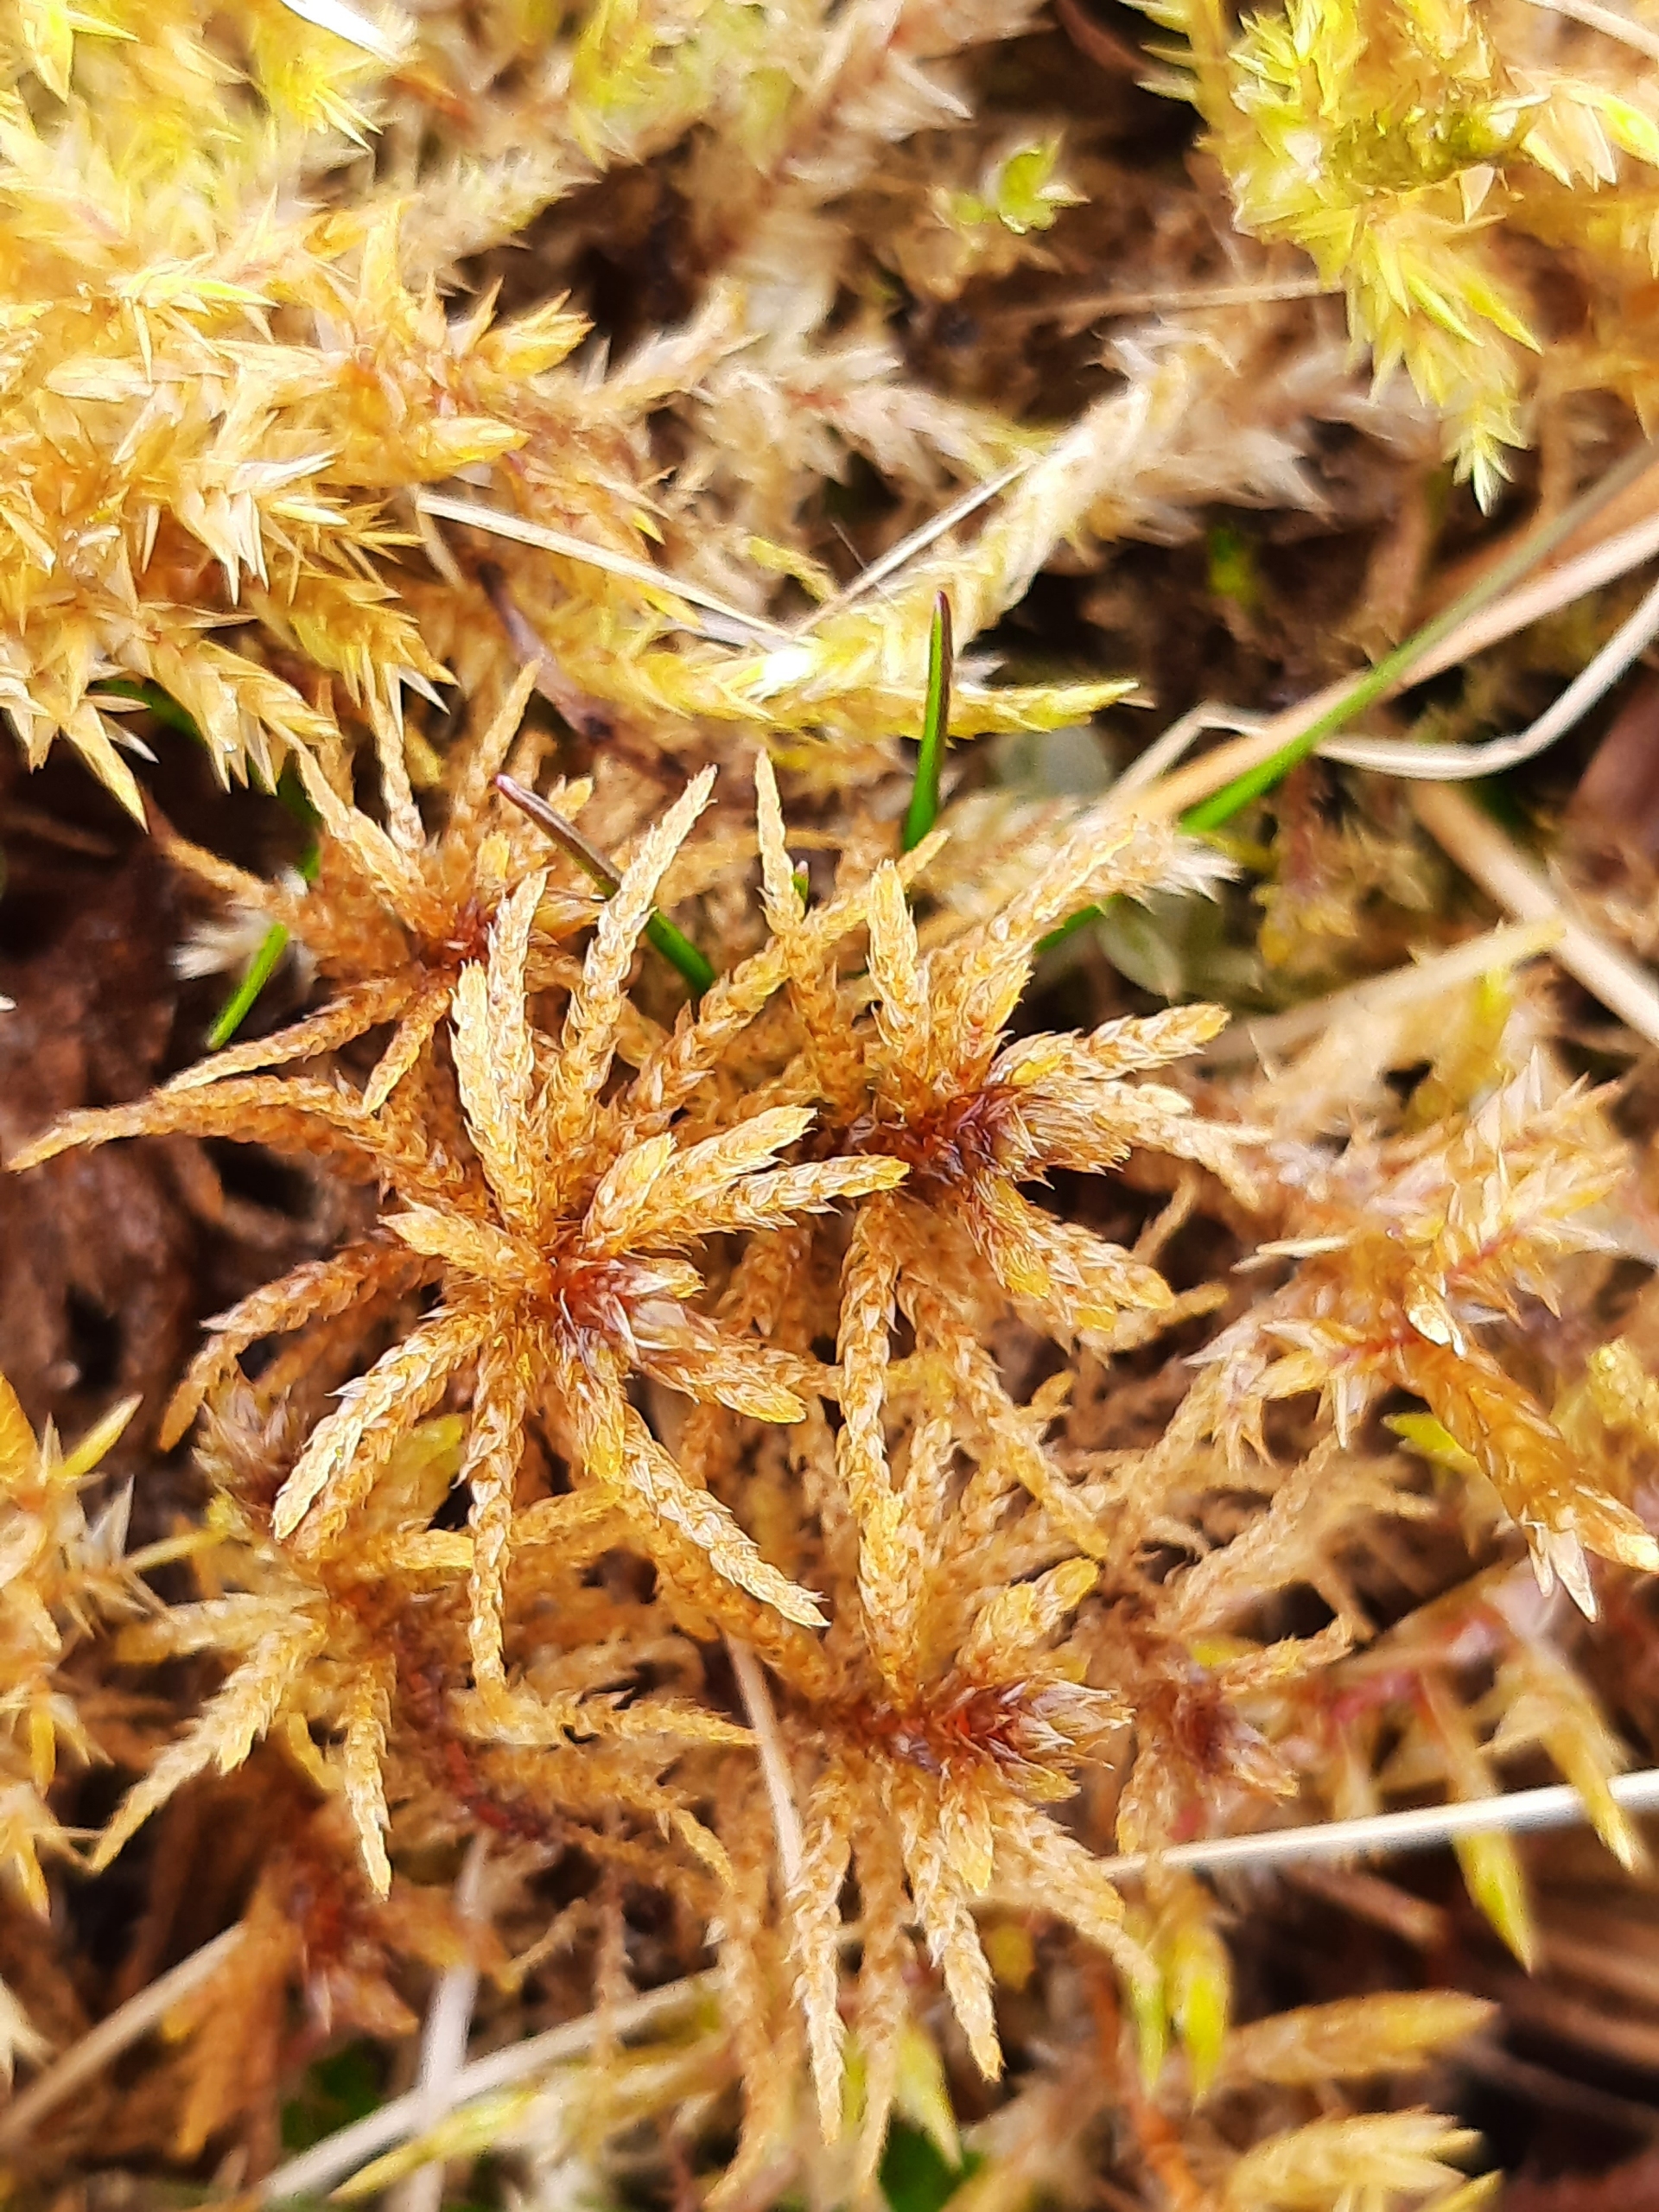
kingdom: Plantae
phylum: Bryophyta
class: Bryopsida
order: Hypnales
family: Helodiaceae
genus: Helodium
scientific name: Helodium blandowii
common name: Kær-gyldenmos
